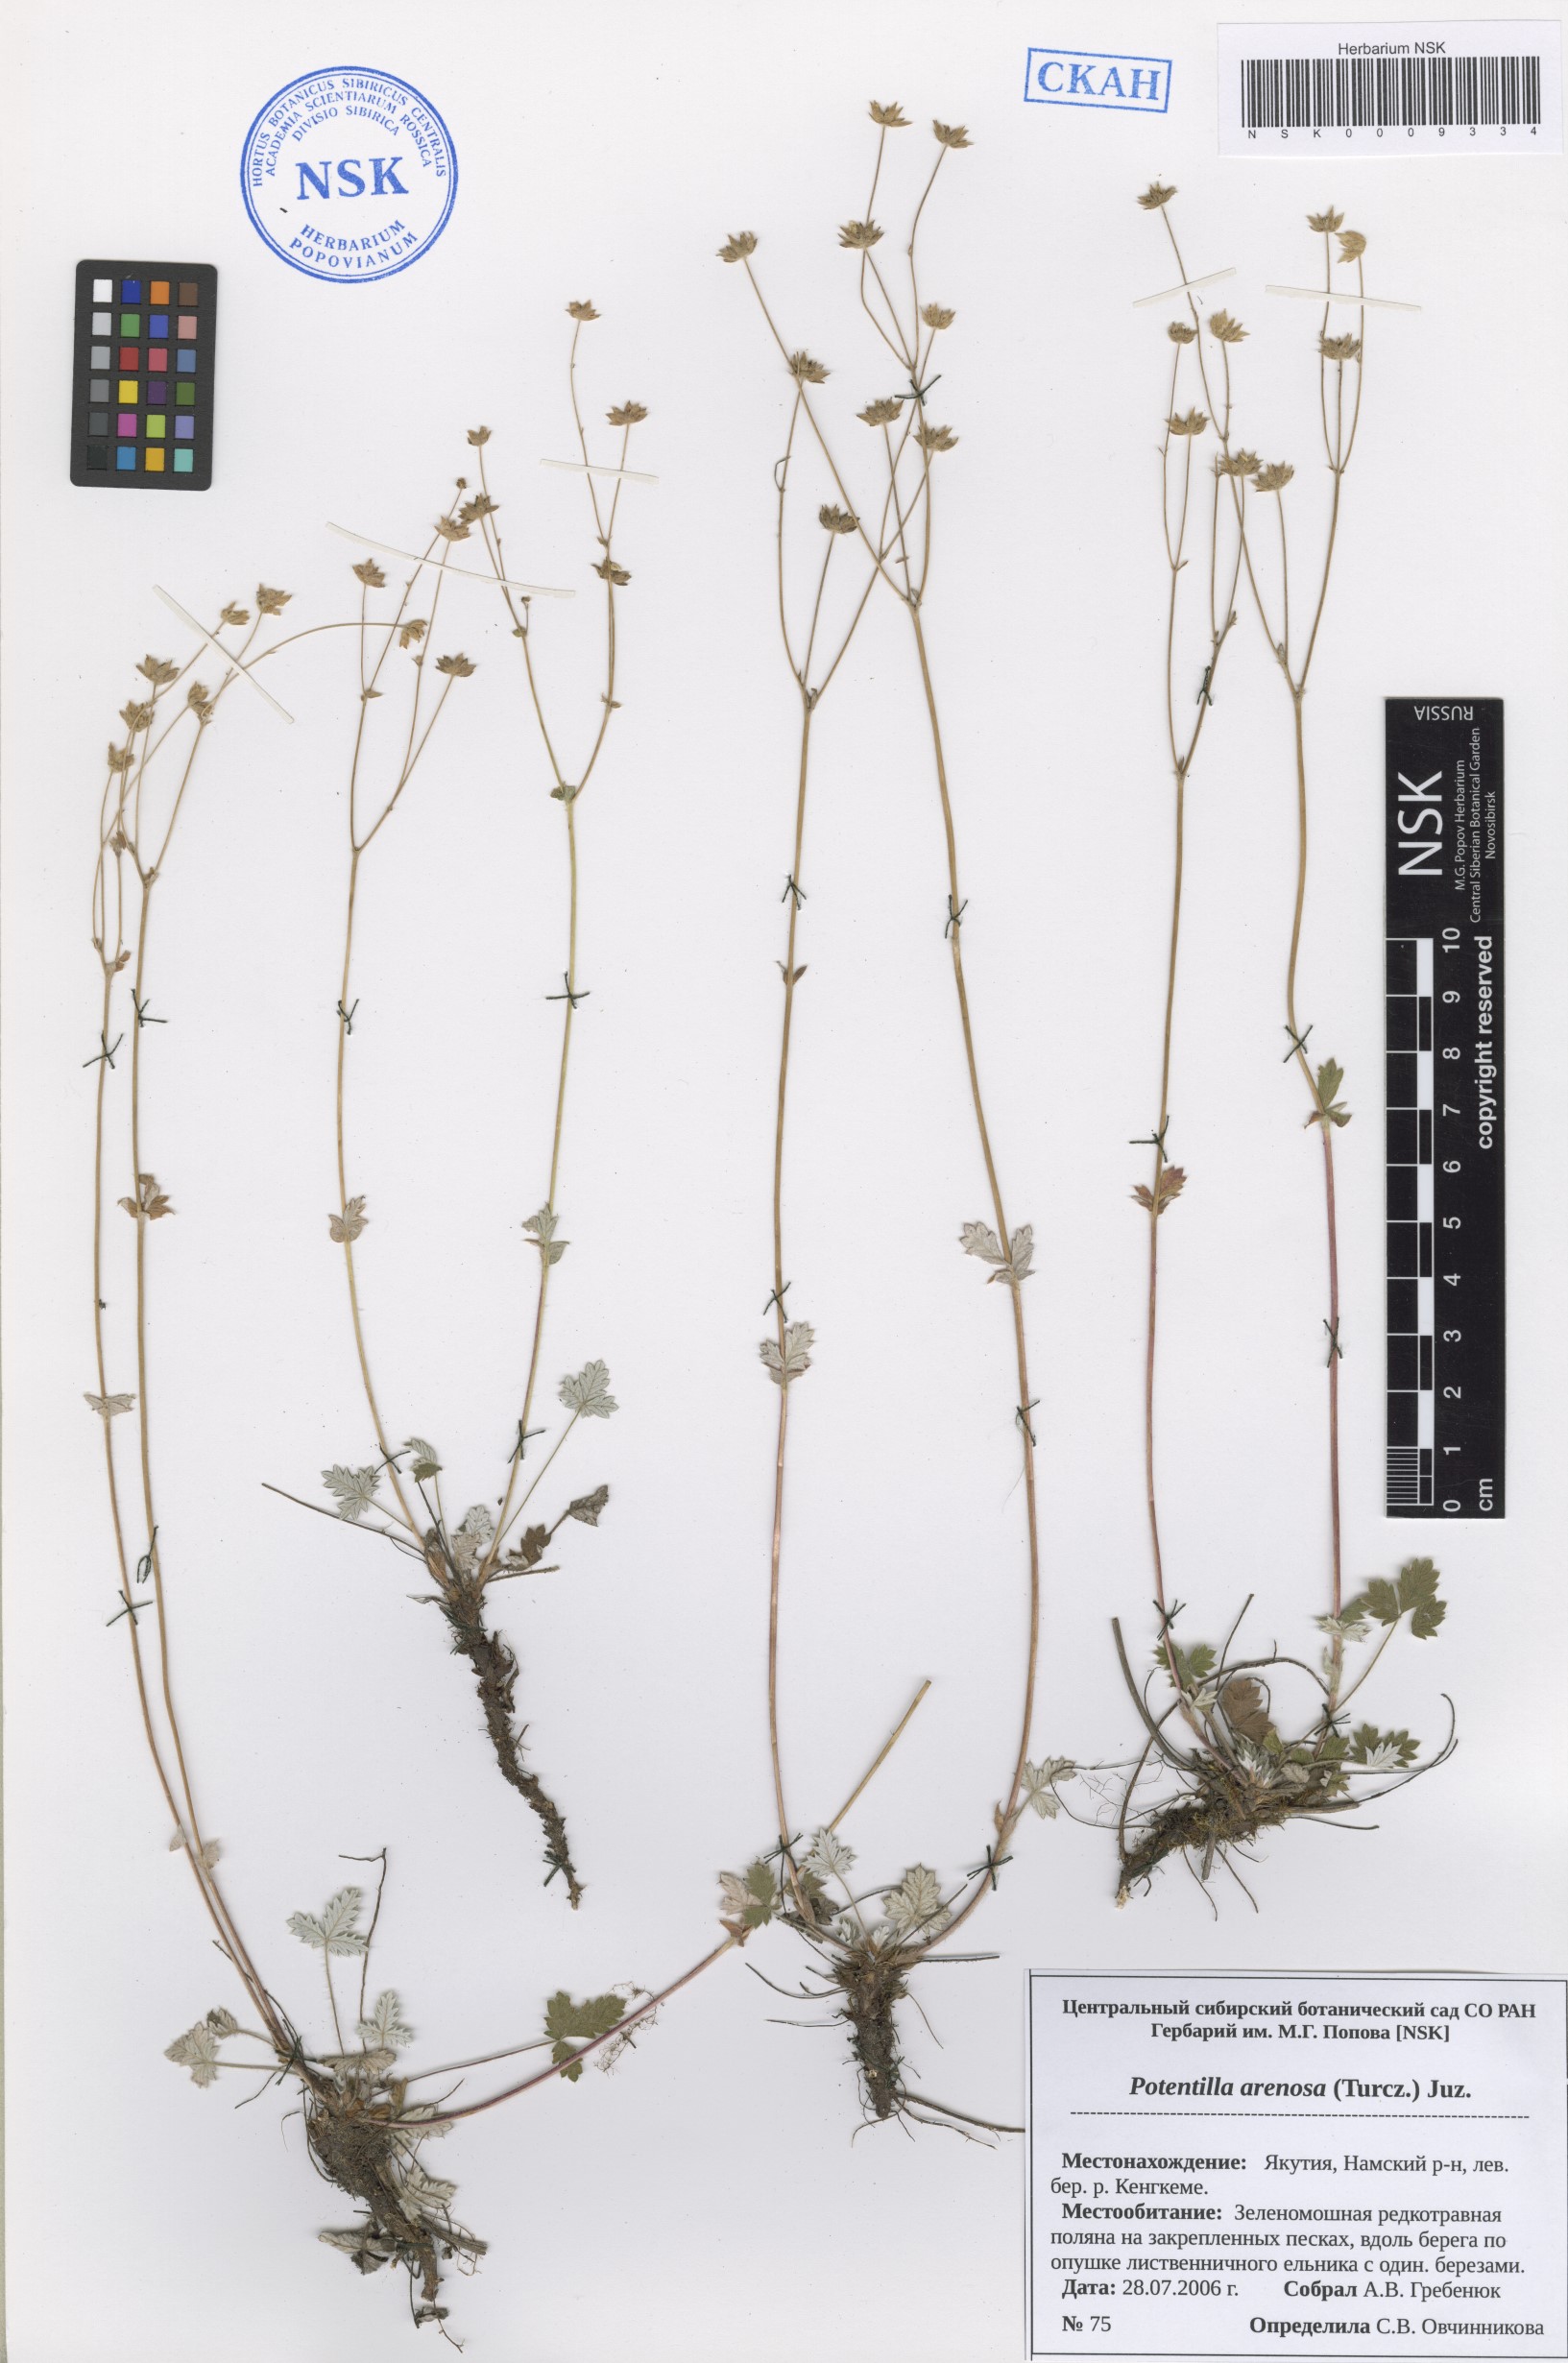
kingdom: Plantae
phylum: Tracheophyta
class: Magnoliopsida
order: Rosales
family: Rosaceae
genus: Potentilla
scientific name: Potentilla arenosa
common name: Bluff cinquefoil
